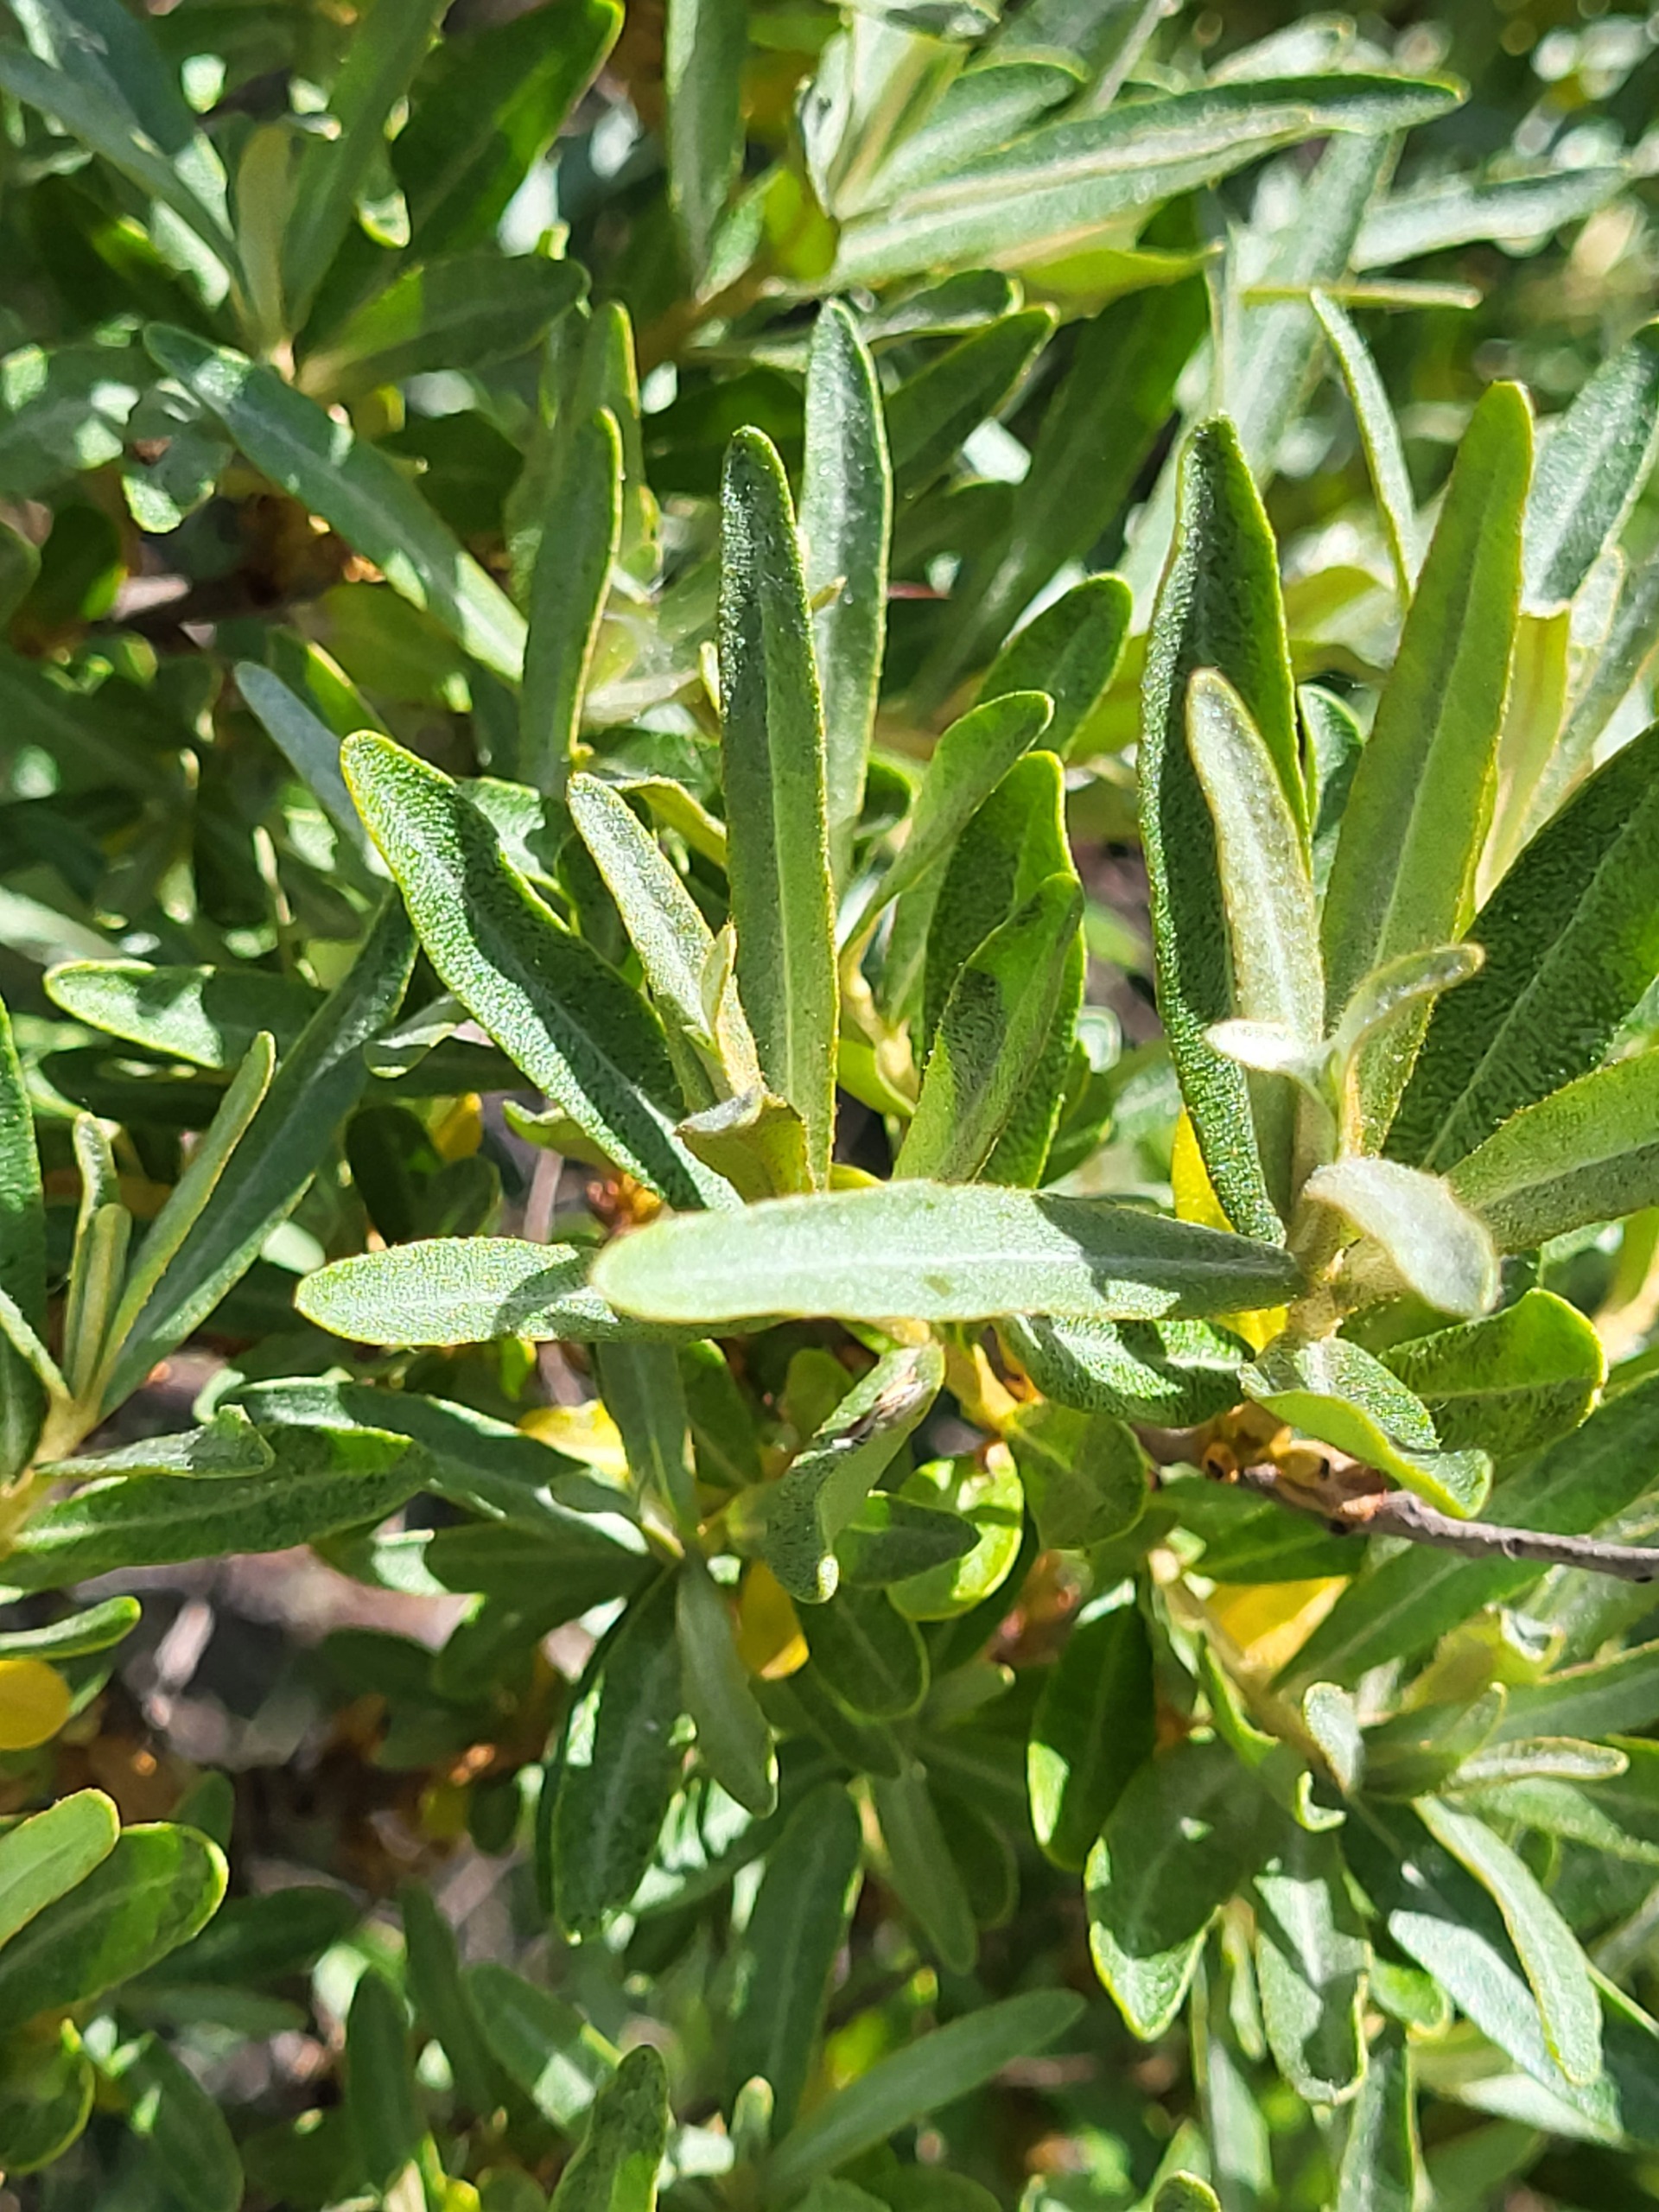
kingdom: Plantae
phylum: Tracheophyta
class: Magnoliopsida
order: Rosales
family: Elaeagnaceae
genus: Hippophae
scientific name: Hippophae rhamnoides
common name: Havtorn
